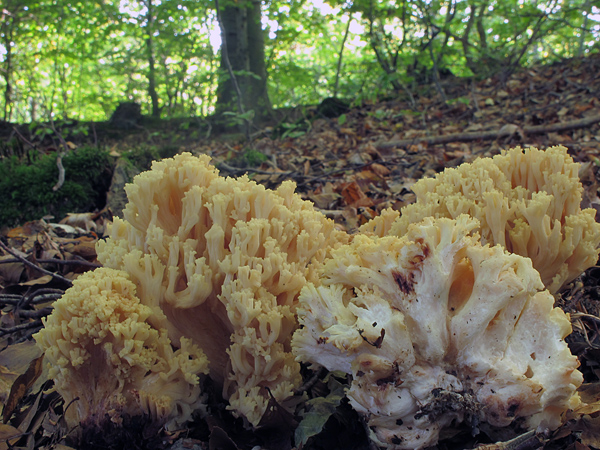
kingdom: Fungi
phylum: Basidiomycota
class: Agaricomycetes
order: Gomphales
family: Gomphaceae
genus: Ramaria
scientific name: Ramaria sanguinea
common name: blodplettet koralsvamp
